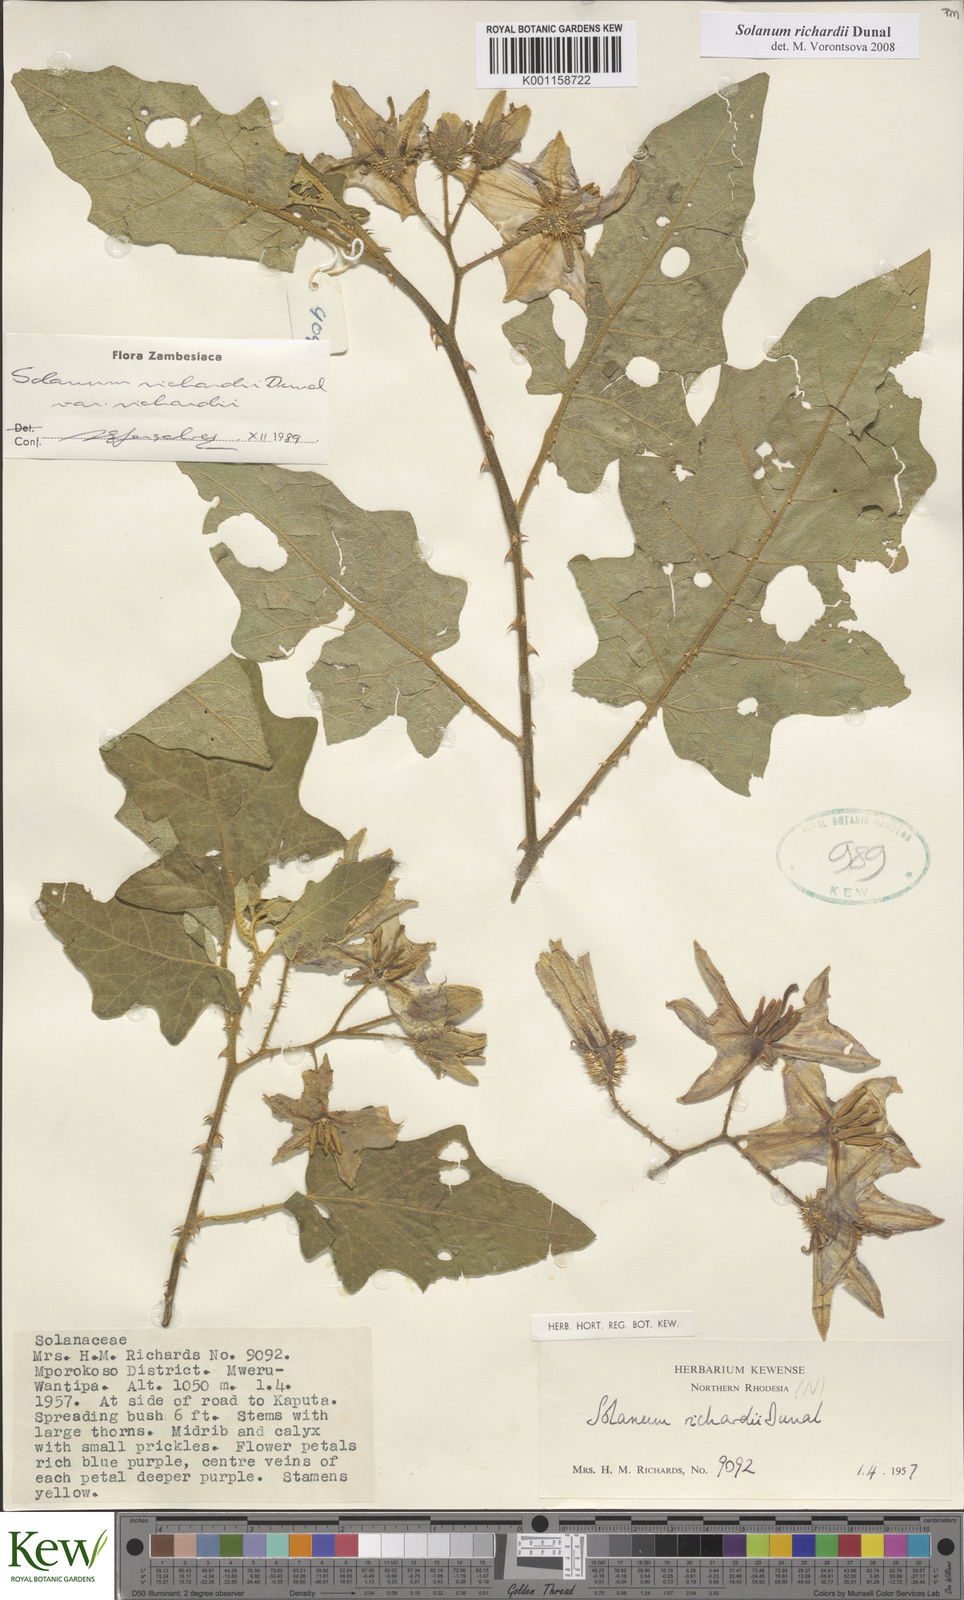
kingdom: Plantae
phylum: Tracheophyta
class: Magnoliopsida
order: Solanales
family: Solanaceae
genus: Solanum
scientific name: Solanum richardii
